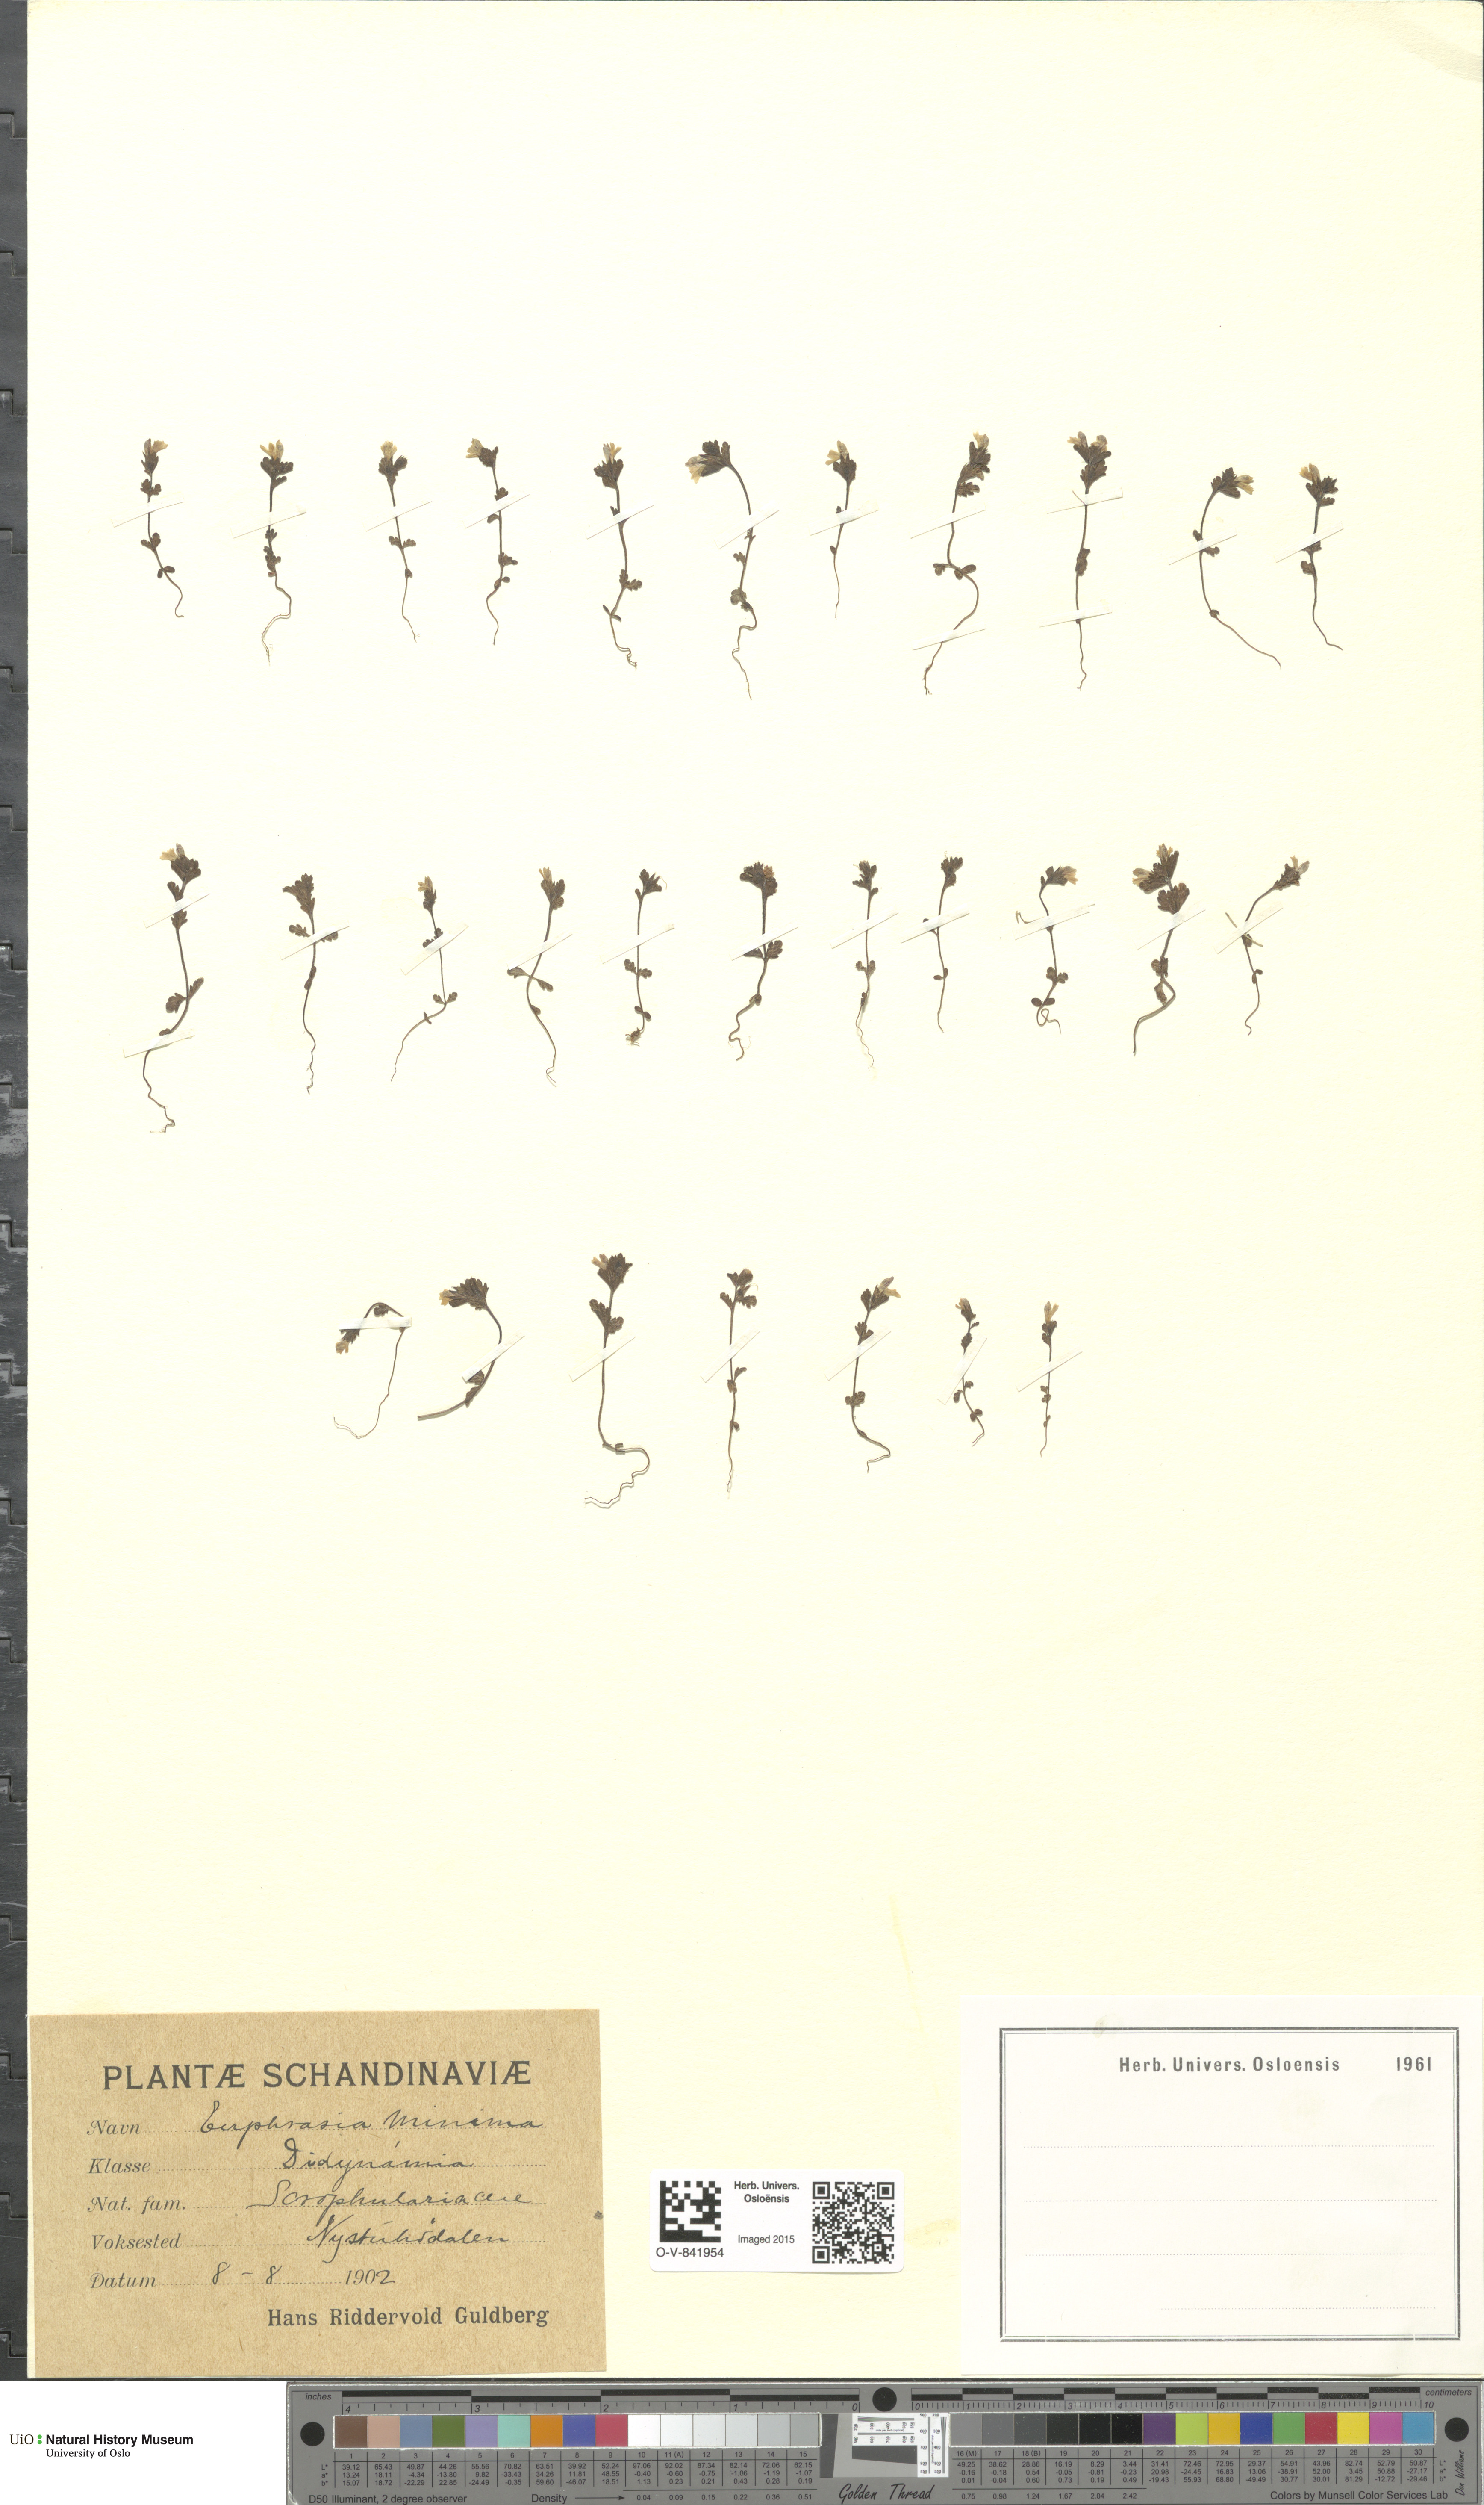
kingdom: Plantae
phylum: Tracheophyta
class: Magnoliopsida
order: Lamiales
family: Orobanchaceae
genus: Euphrasia
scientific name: Euphrasia wettsteinii
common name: Wettstein's eyebright
